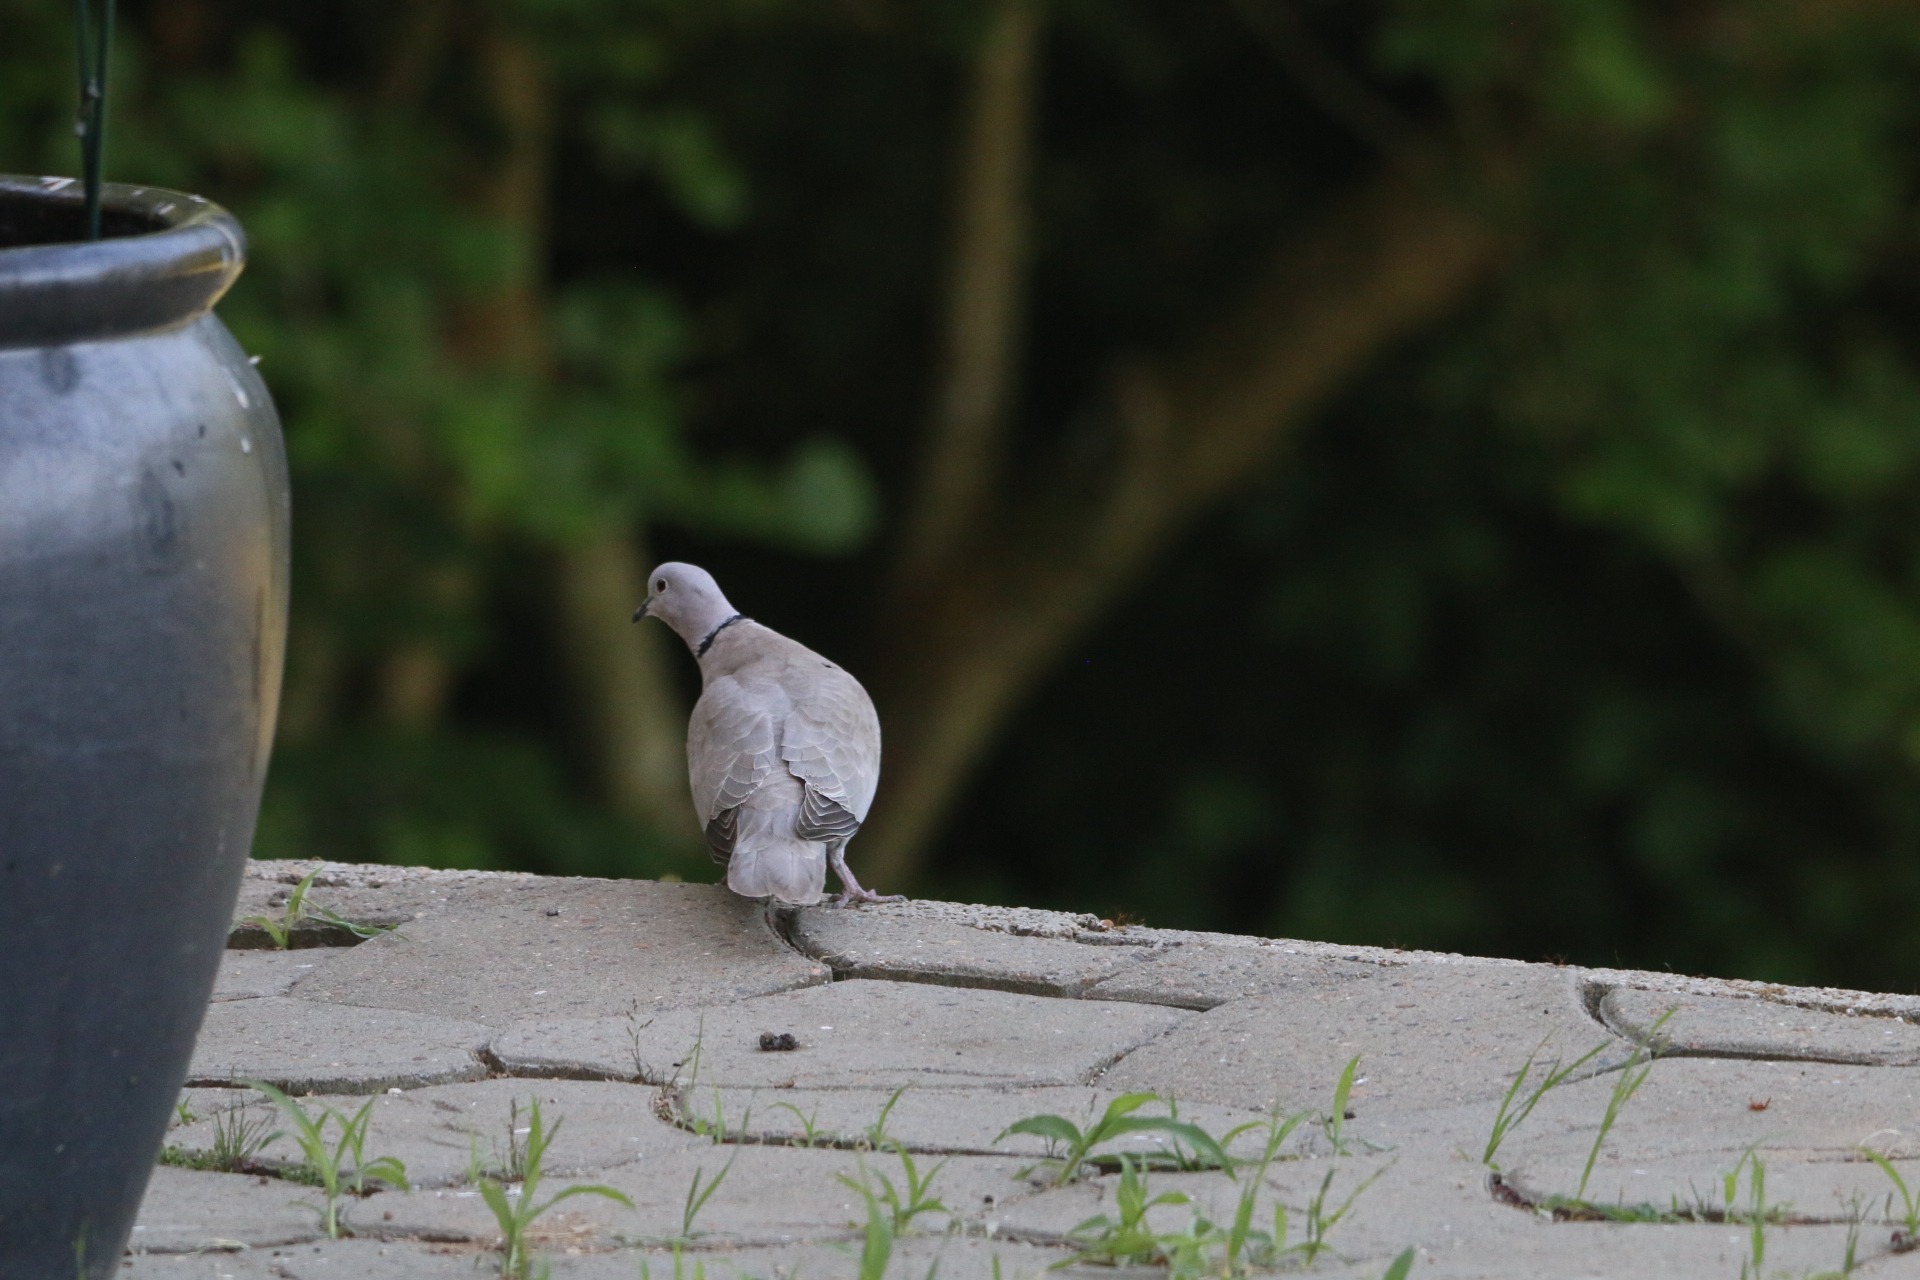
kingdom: Animalia
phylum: Chordata
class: Aves
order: Columbiformes
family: Columbidae
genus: Streptopelia
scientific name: Streptopelia decaocto
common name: Tyrkerdue
